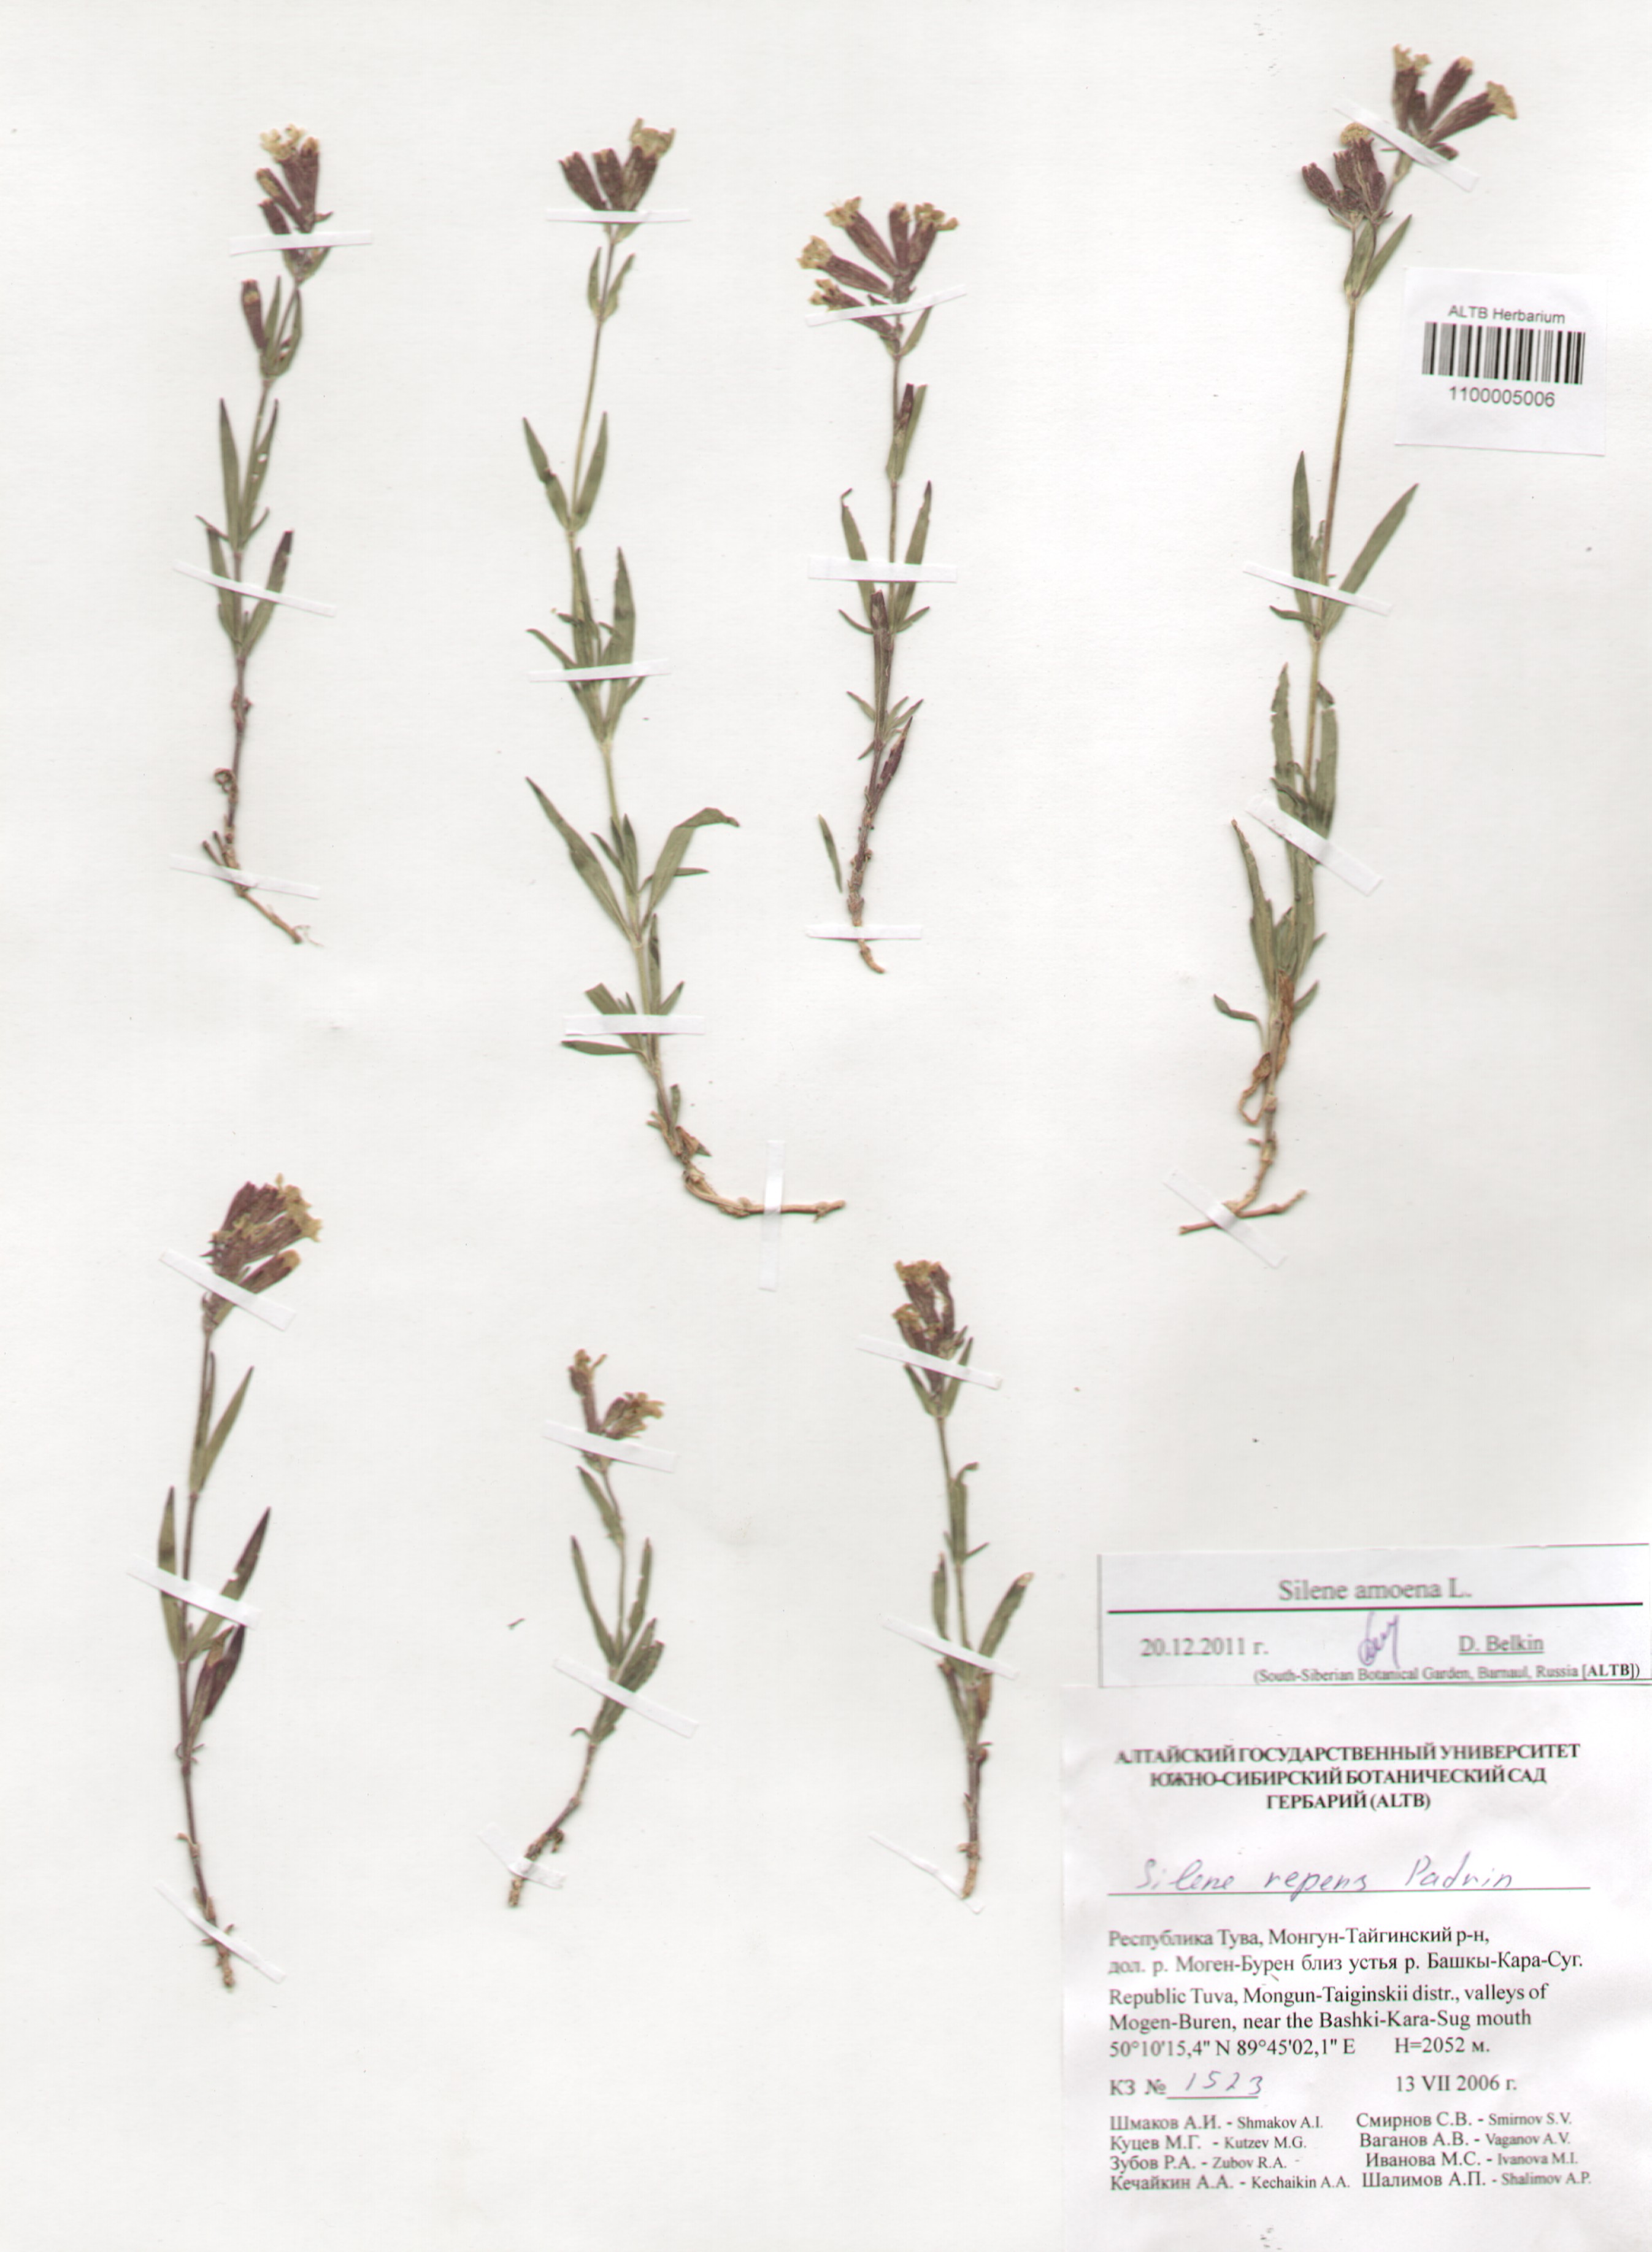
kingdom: Plantae
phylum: Tracheophyta
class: Magnoliopsida
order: Caryophyllales
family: Caryophyllaceae
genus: Silene
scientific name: Silene amoena
